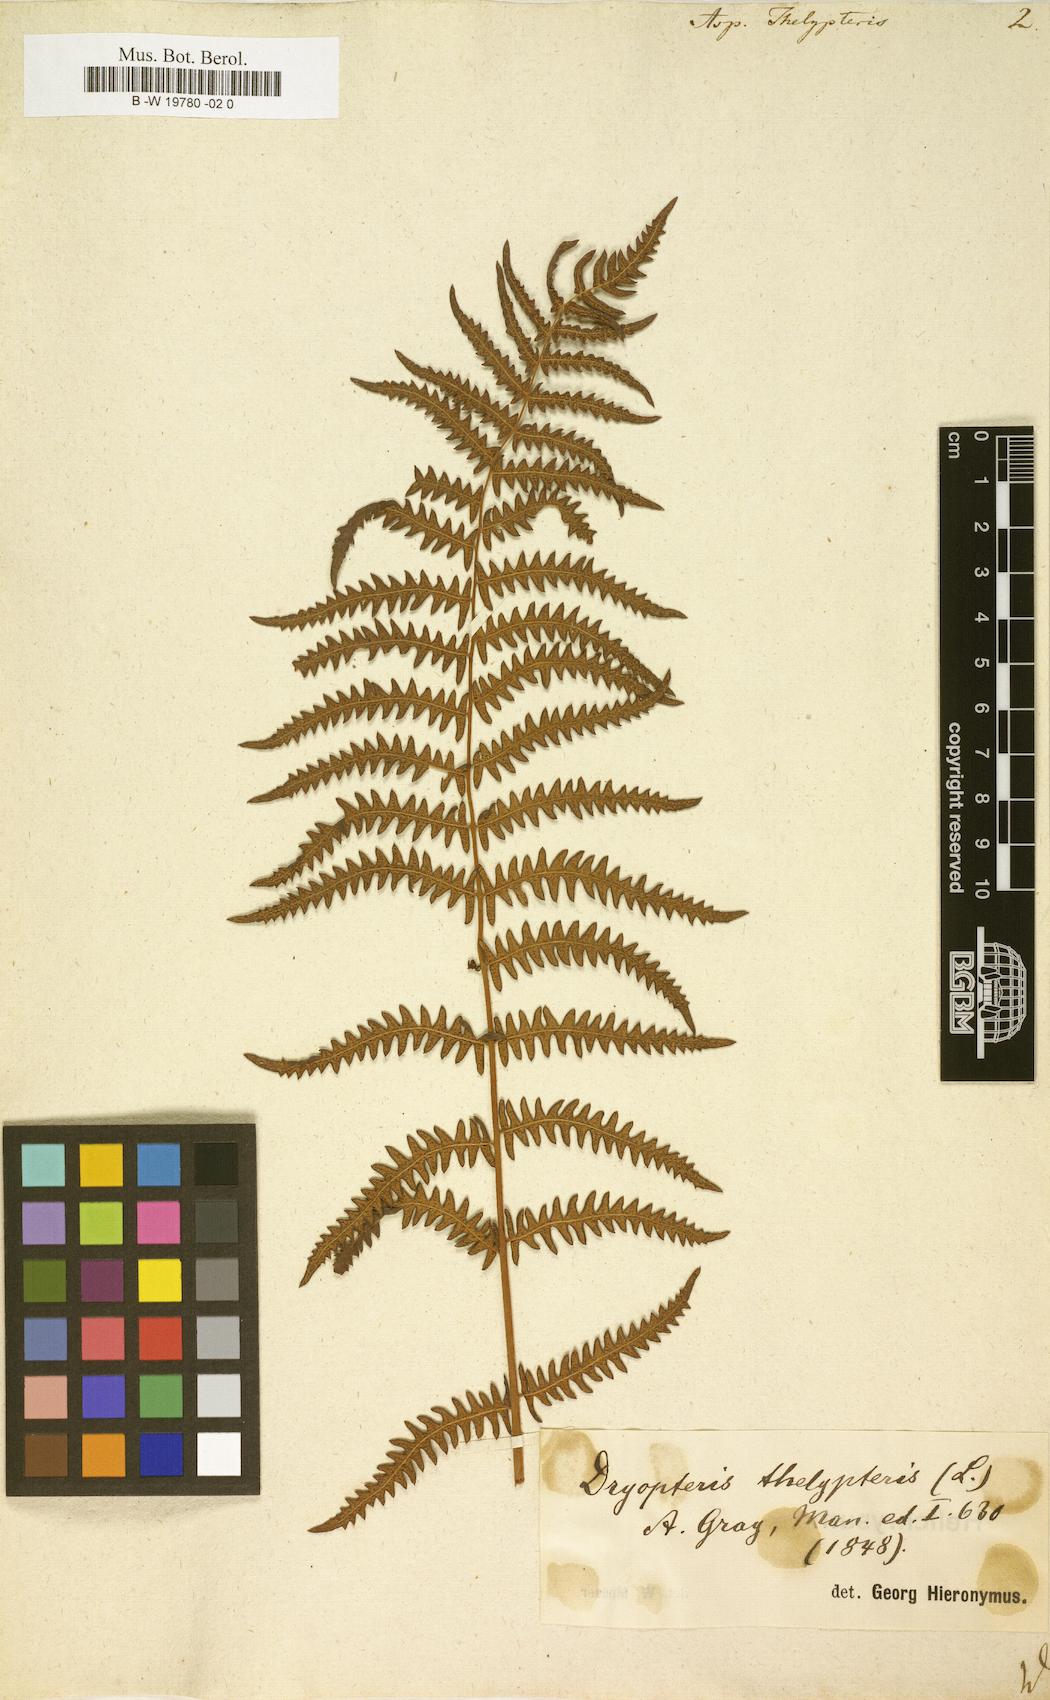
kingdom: Plantae
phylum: Tracheophyta
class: Polypodiopsida
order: Polypodiales
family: Thelypteridaceae
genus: Thelypteris
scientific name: Thelypteris palustris
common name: Marsh fern
